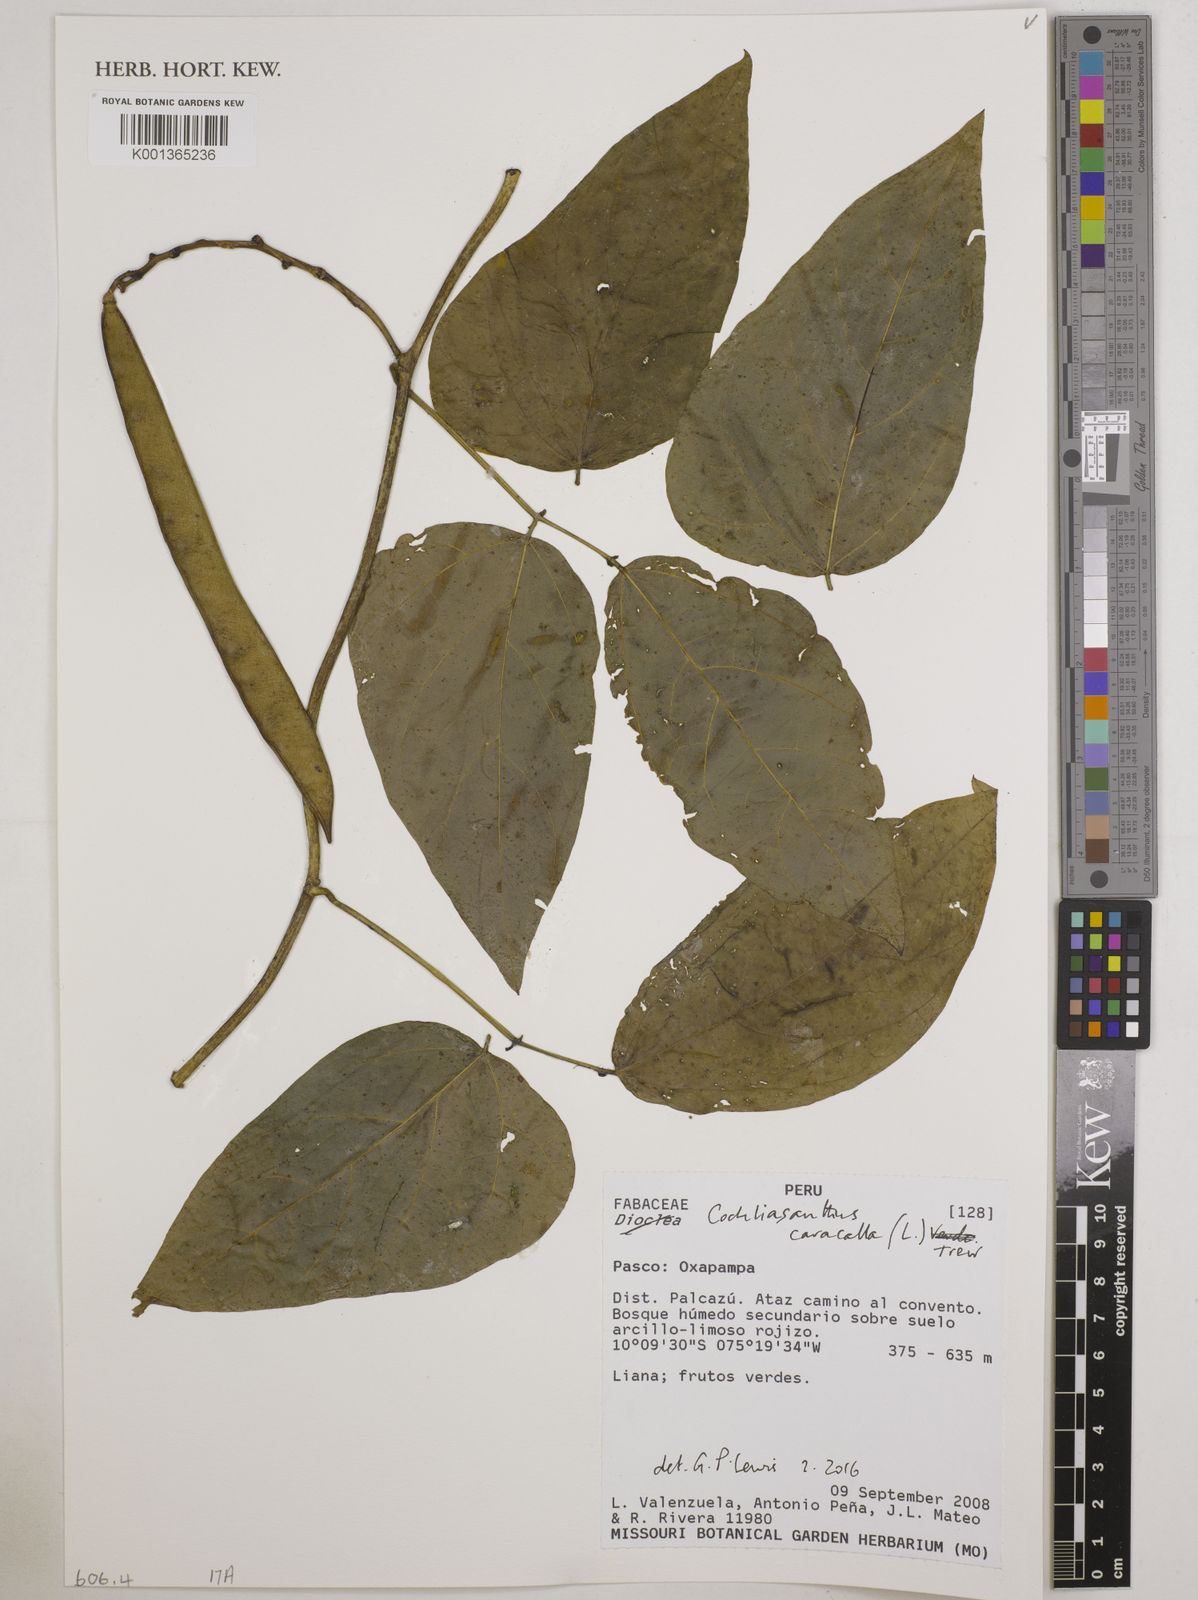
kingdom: Plantae
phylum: Tracheophyta
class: Magnoliopsida
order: Fabales
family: Fabaceae
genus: Cochliasanthus
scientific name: Cochliasanthus caracalla
